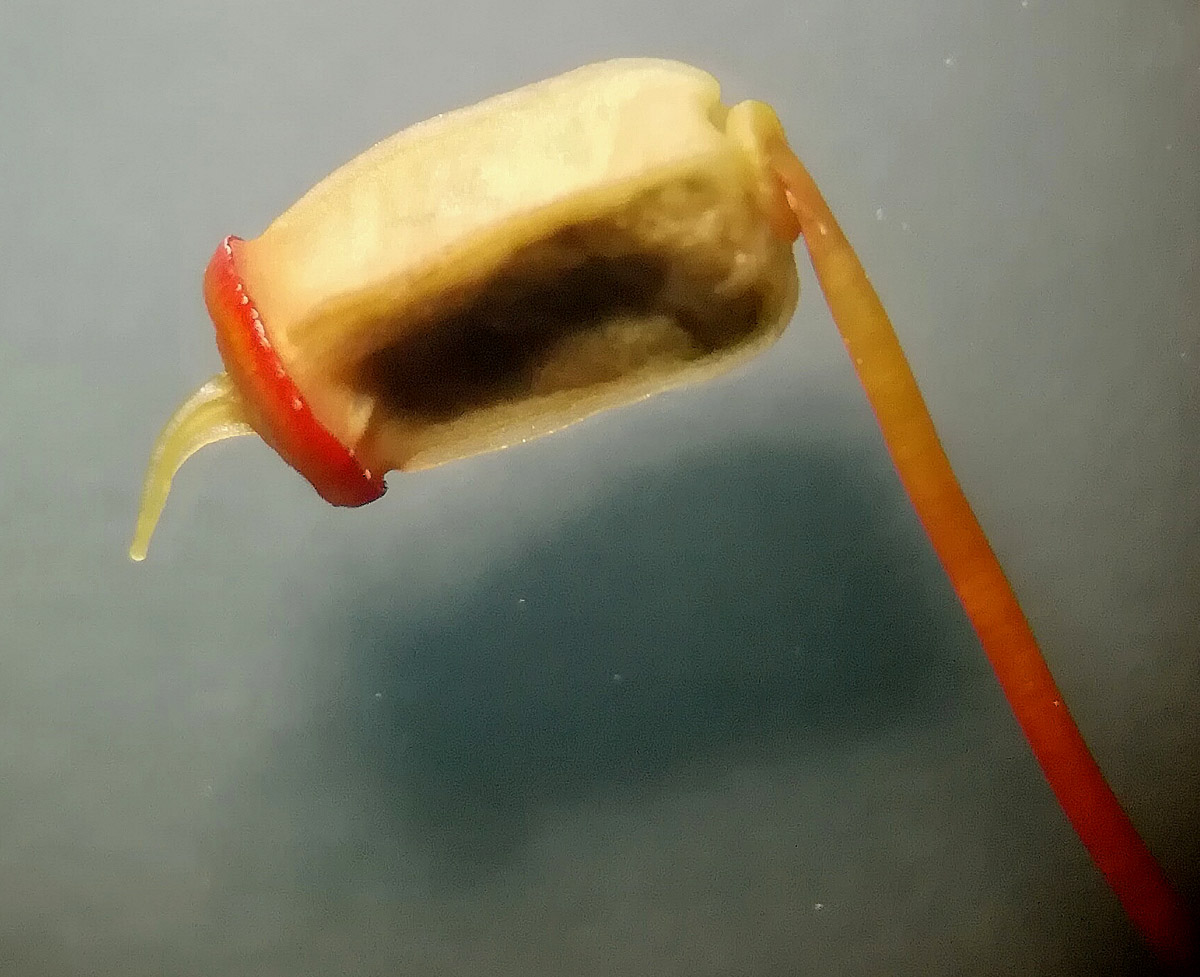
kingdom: Plantae
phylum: Bryophyta
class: Polytrichopsida
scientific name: Polytrichopsida
